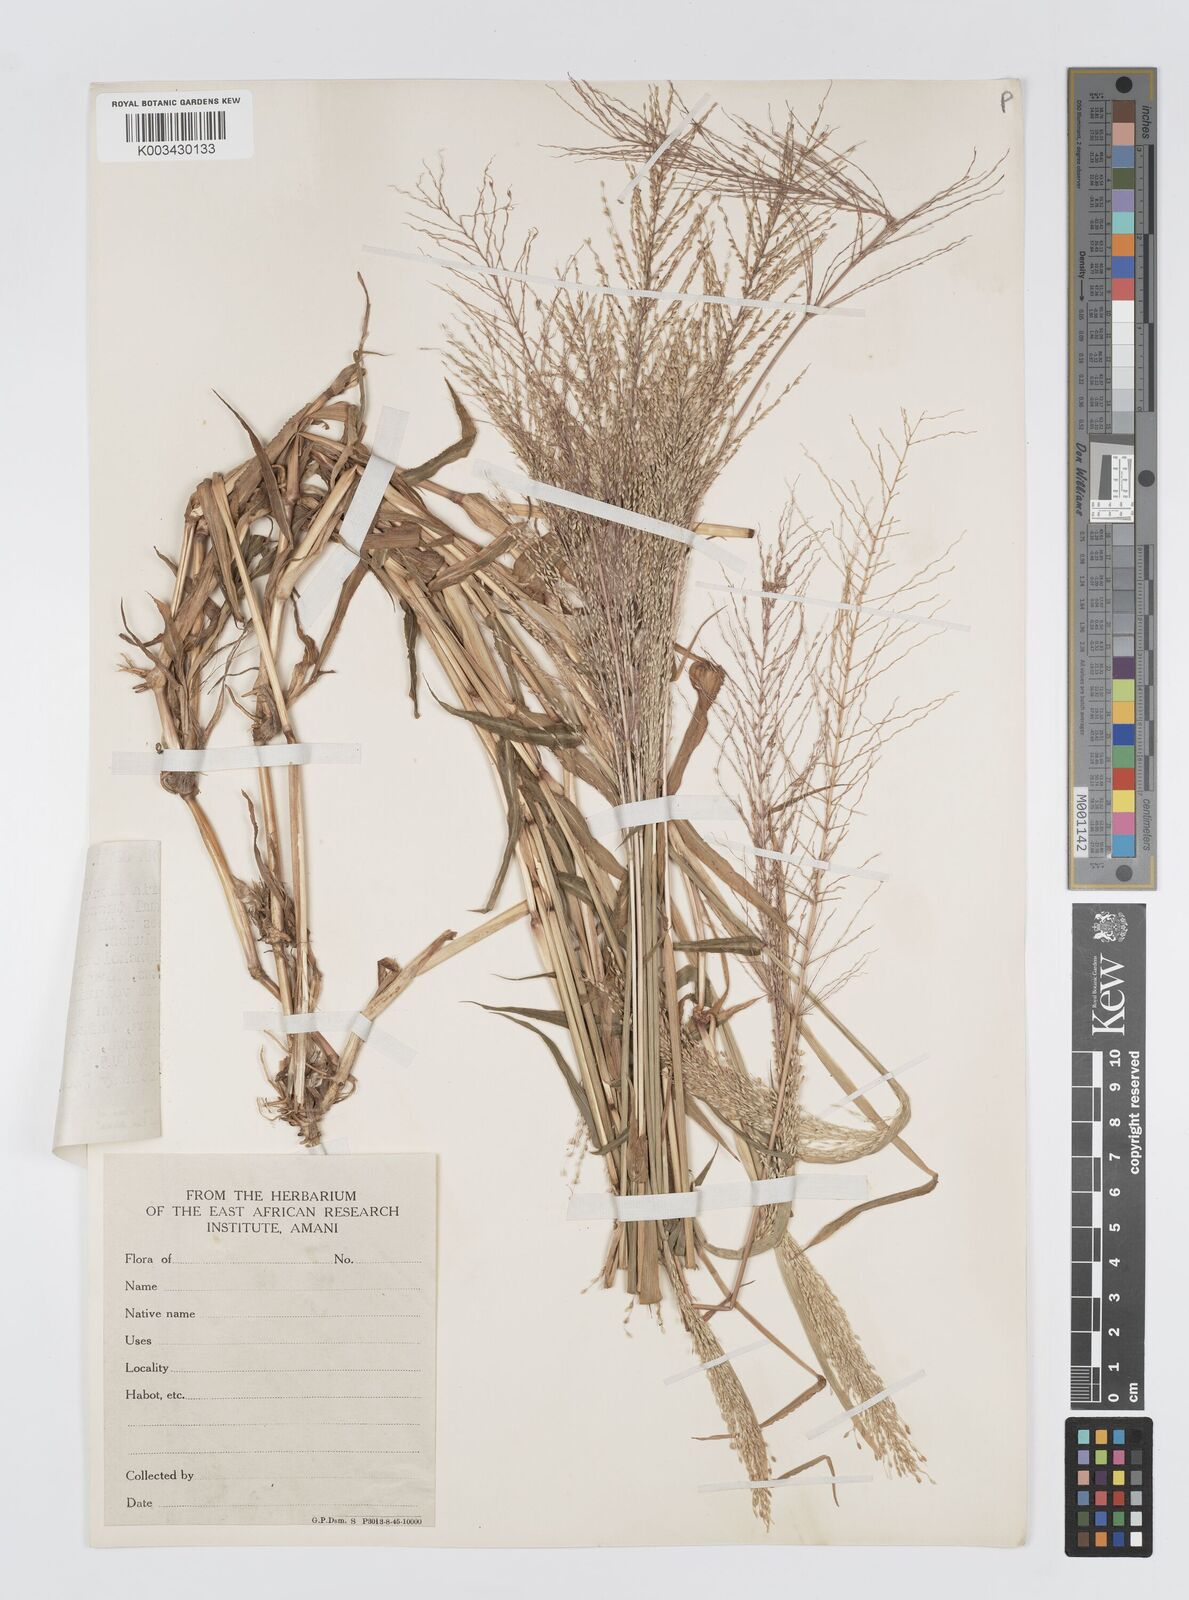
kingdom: Plantae
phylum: Tracheophyta
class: Liliopsida
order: Poales
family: Poaceae
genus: Digitaria
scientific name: Digitaria perrottetii
